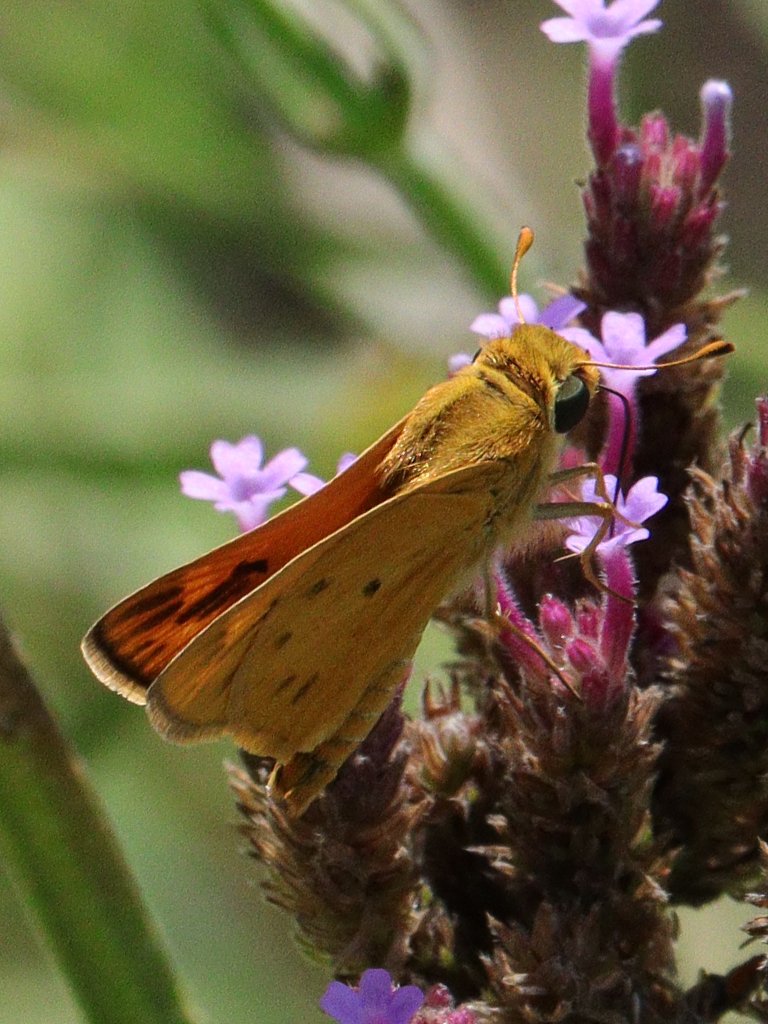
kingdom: Animalia
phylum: Arthropoda
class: Insecta
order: Lepidoptera
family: Hesperiidae
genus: Hylephila
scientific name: Hylephila phyleus
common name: Fiery Skipper
